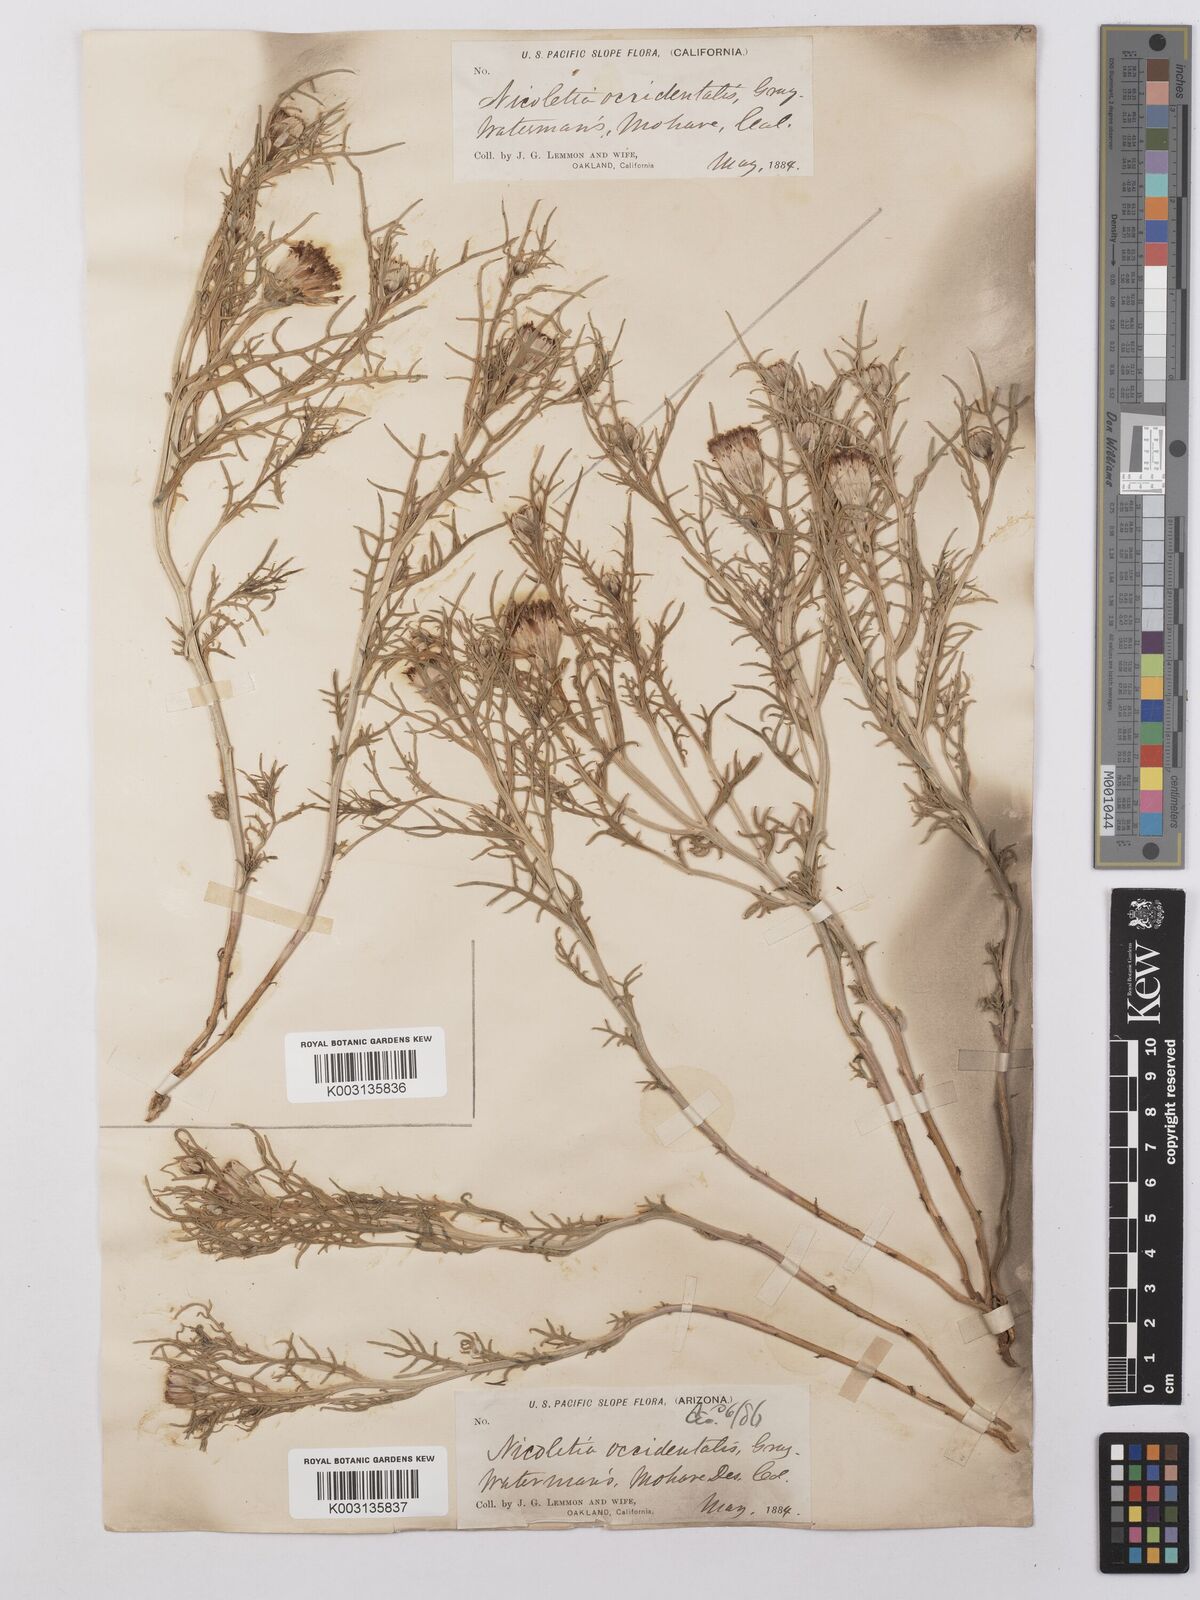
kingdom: Plantae
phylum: Tracheophyta
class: Magnoliopsida
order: Asterales
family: Asteraceae
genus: Nicolletia
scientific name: Nicolletia occidentalis
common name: Hole-in-the-sand-plant
